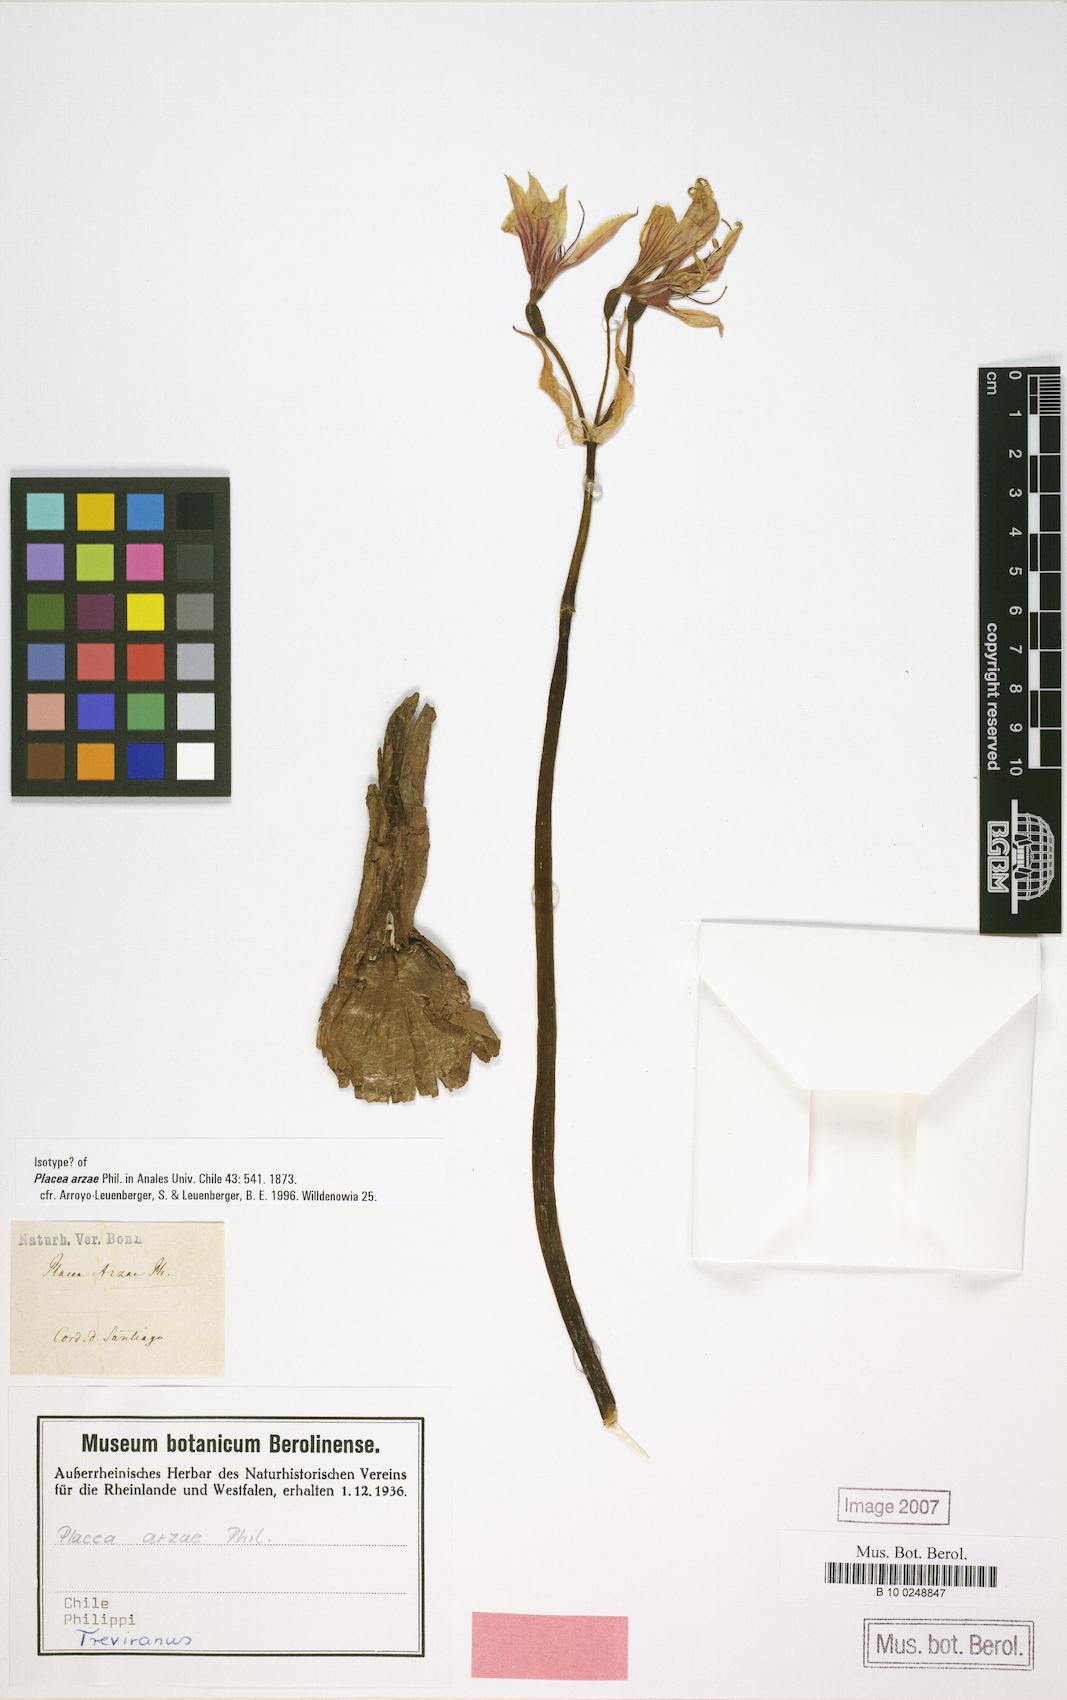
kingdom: Plantae
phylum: Tracheophyta
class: Liliopsida
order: Asparagales
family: Amaryllidaceae
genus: Phycella
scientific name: Phycella arzae
